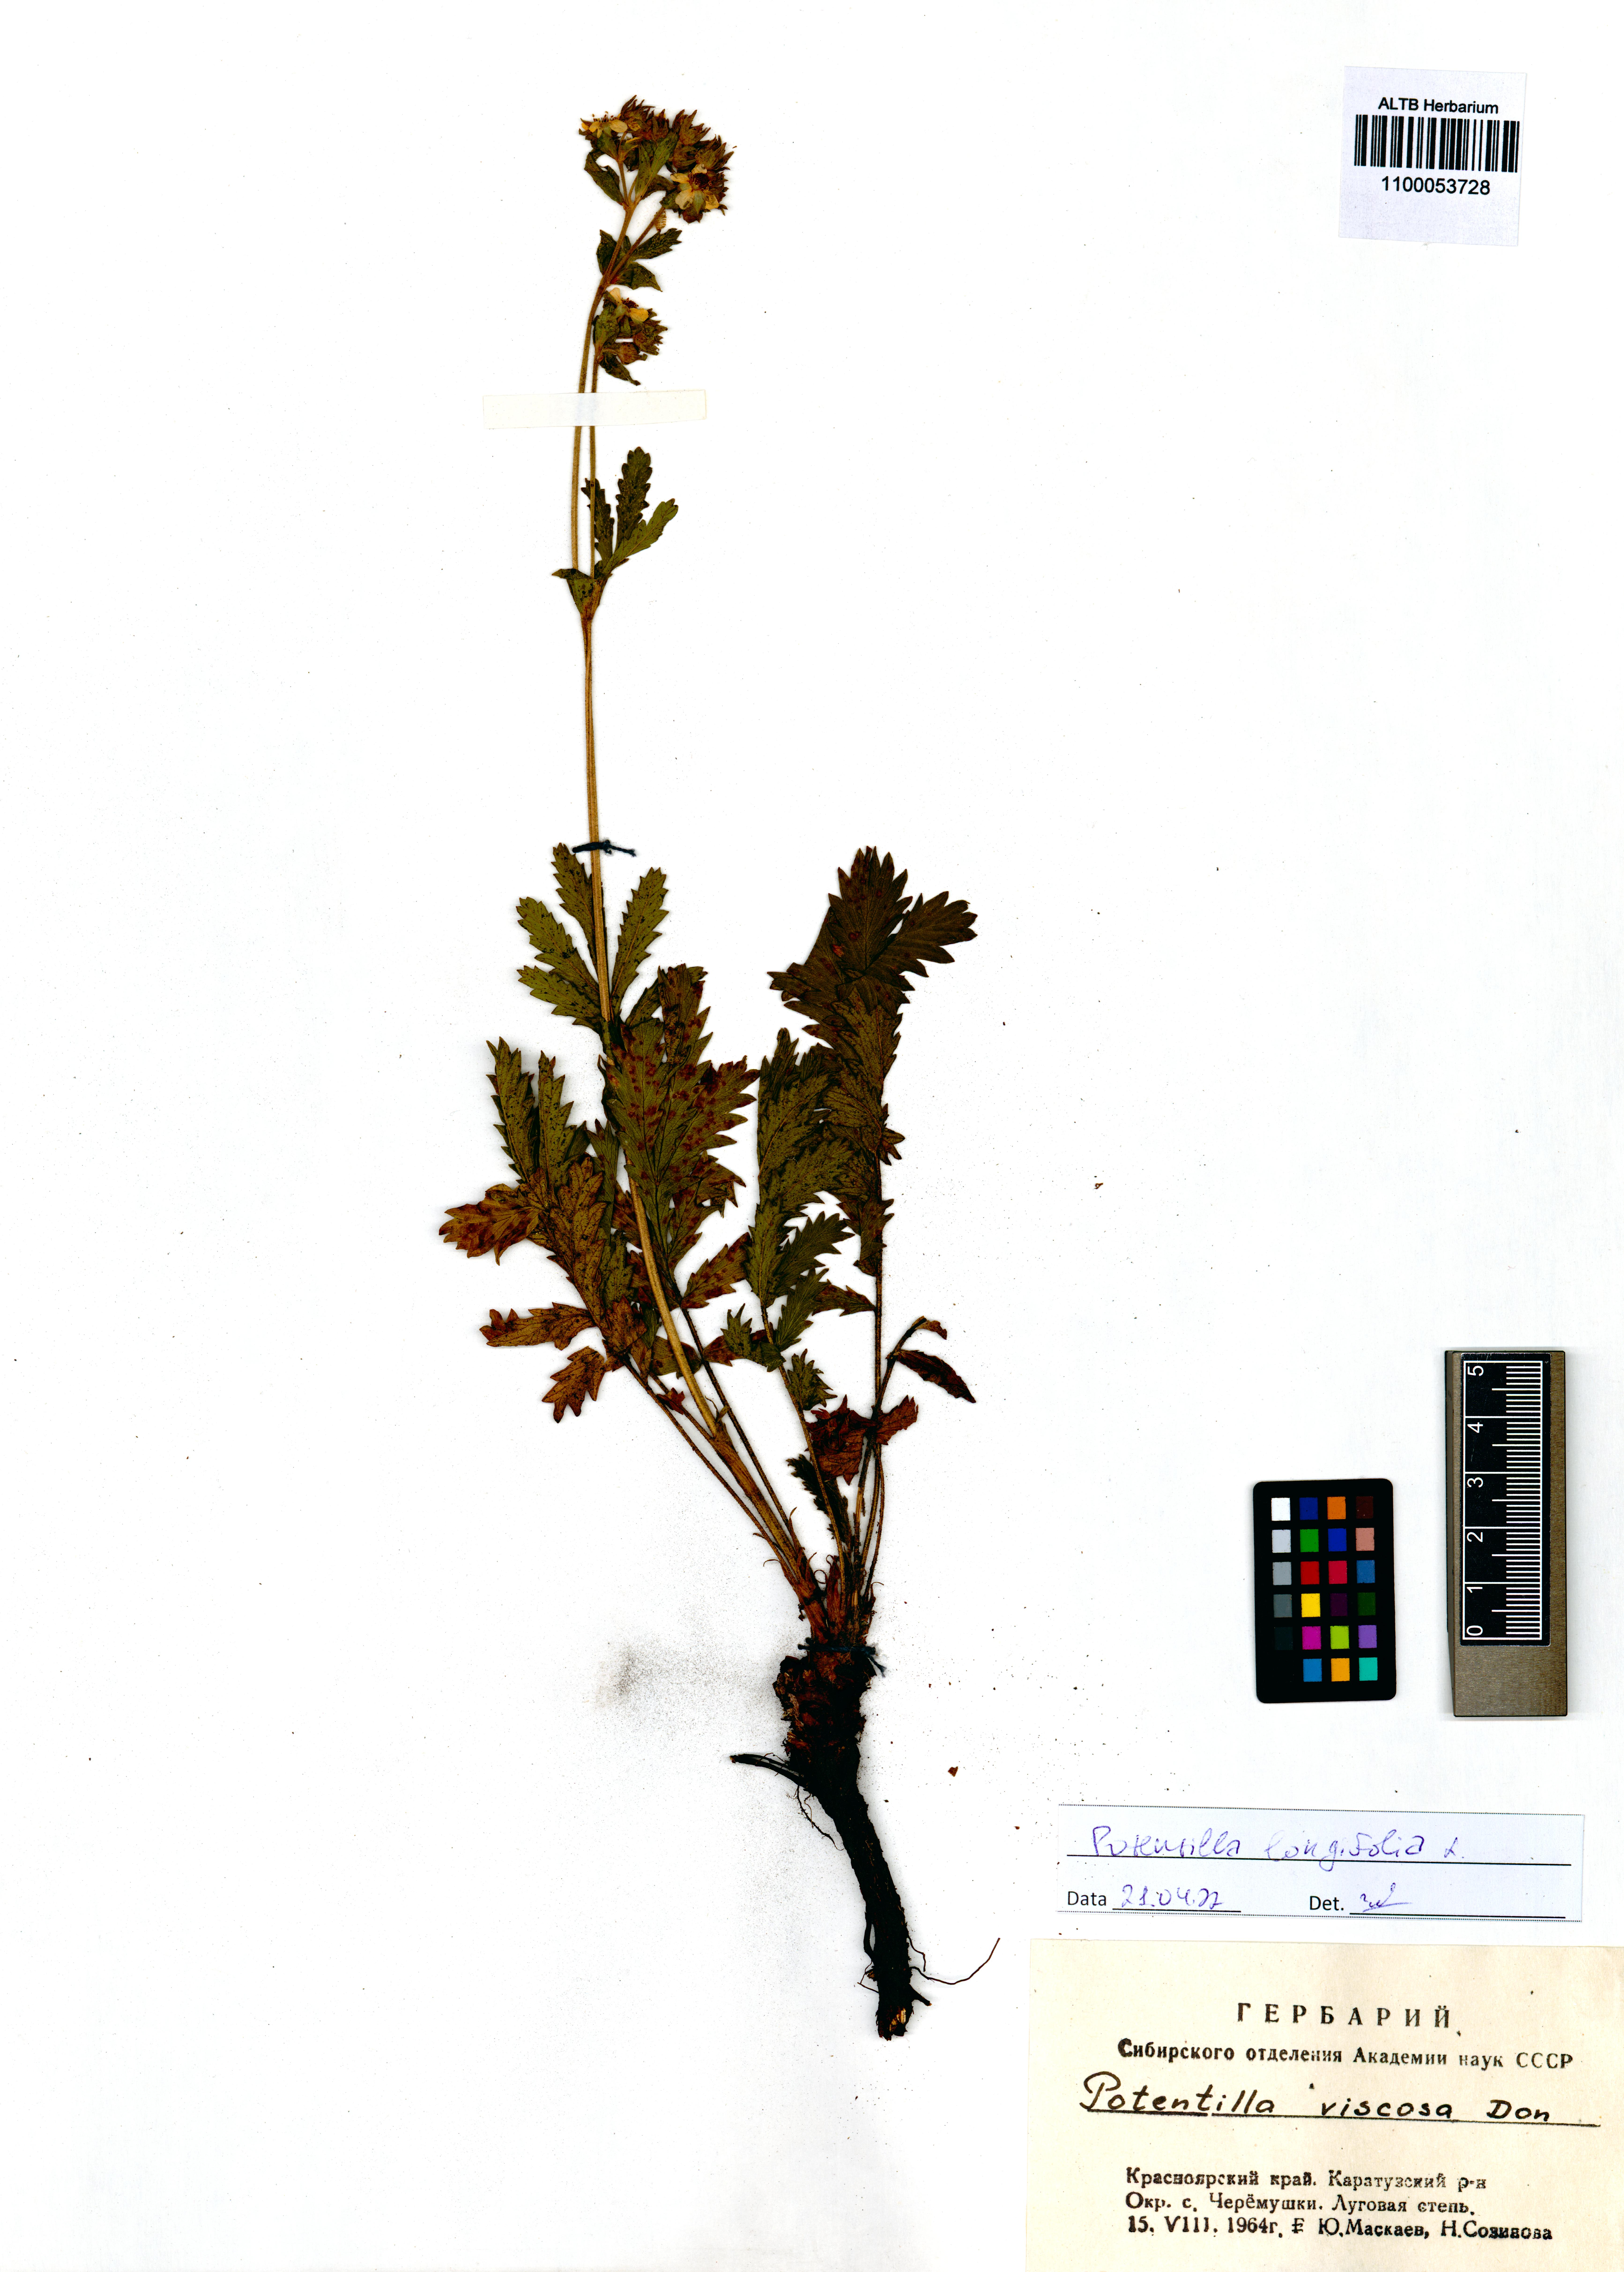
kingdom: Plantae
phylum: Tracheophyta
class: Magnoliopsida
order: Rosales
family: Rosaceae
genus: Potentilla
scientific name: Potentilla longifolia
